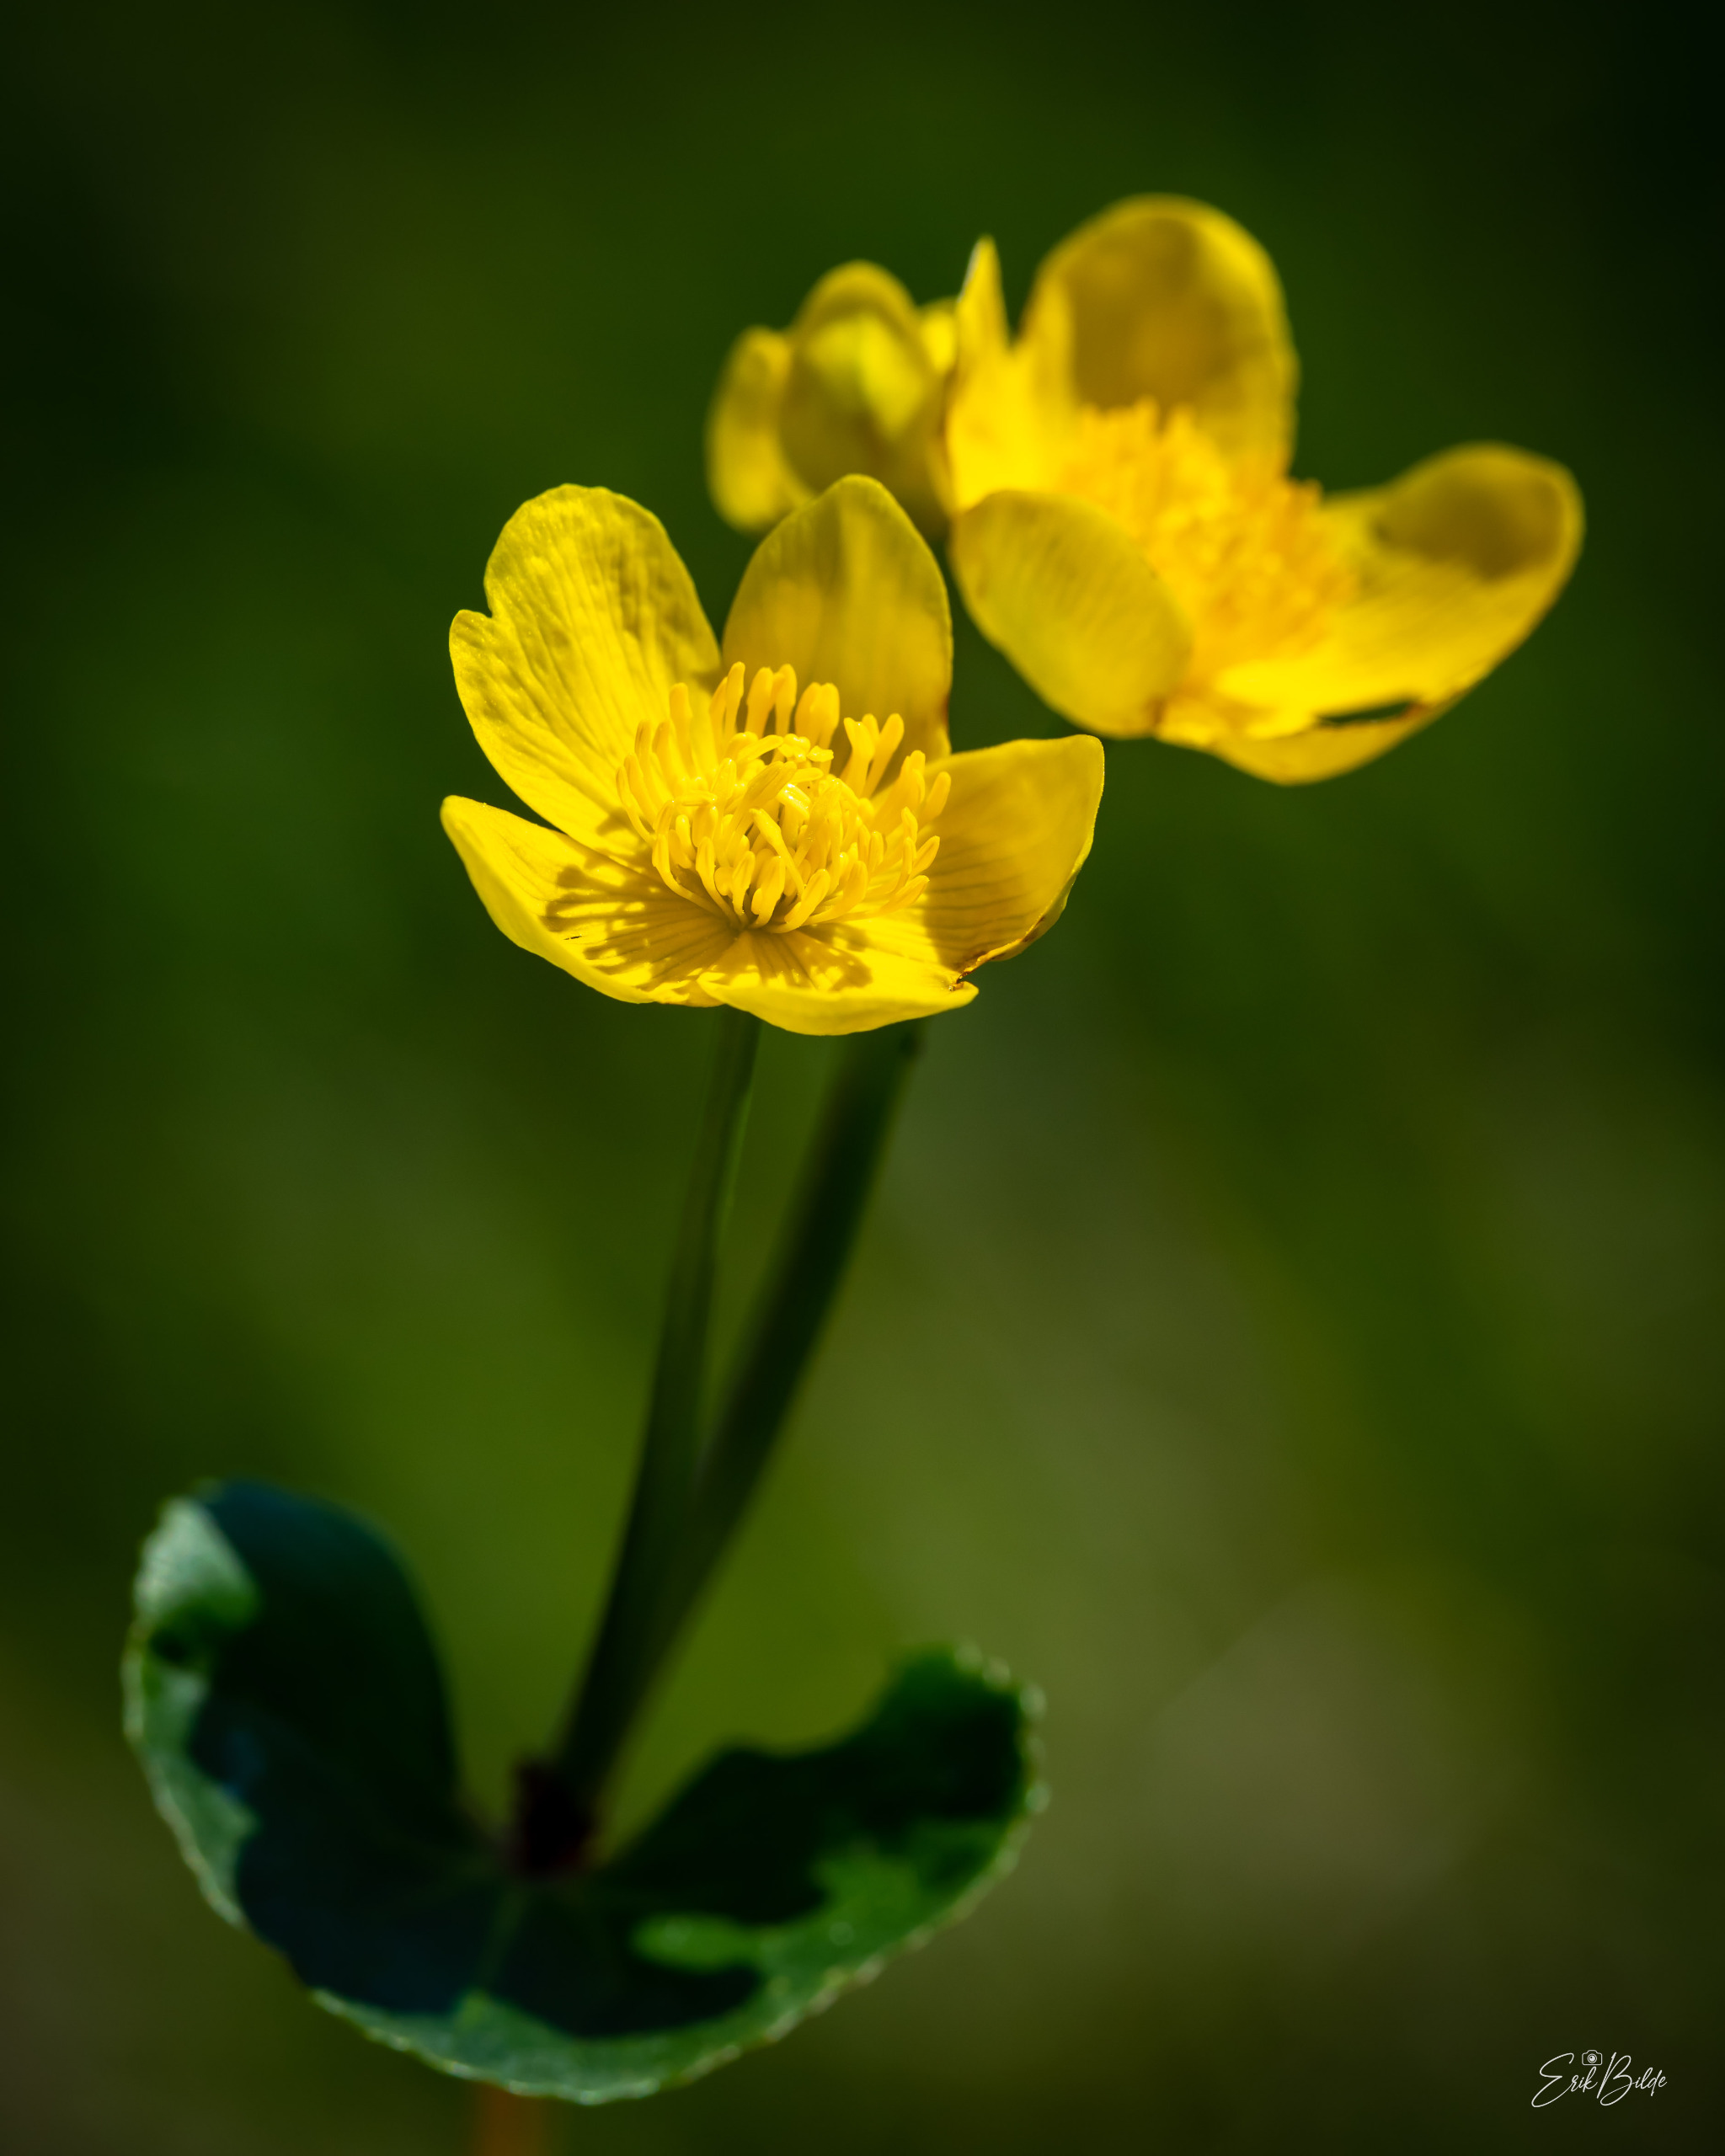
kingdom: Plantae
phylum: Tracheophyta
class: Magnoliopsida
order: Ranunculales
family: Ranunculaceae
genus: Caltha
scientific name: Caltha palustris
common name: Eng-kabbeleje
